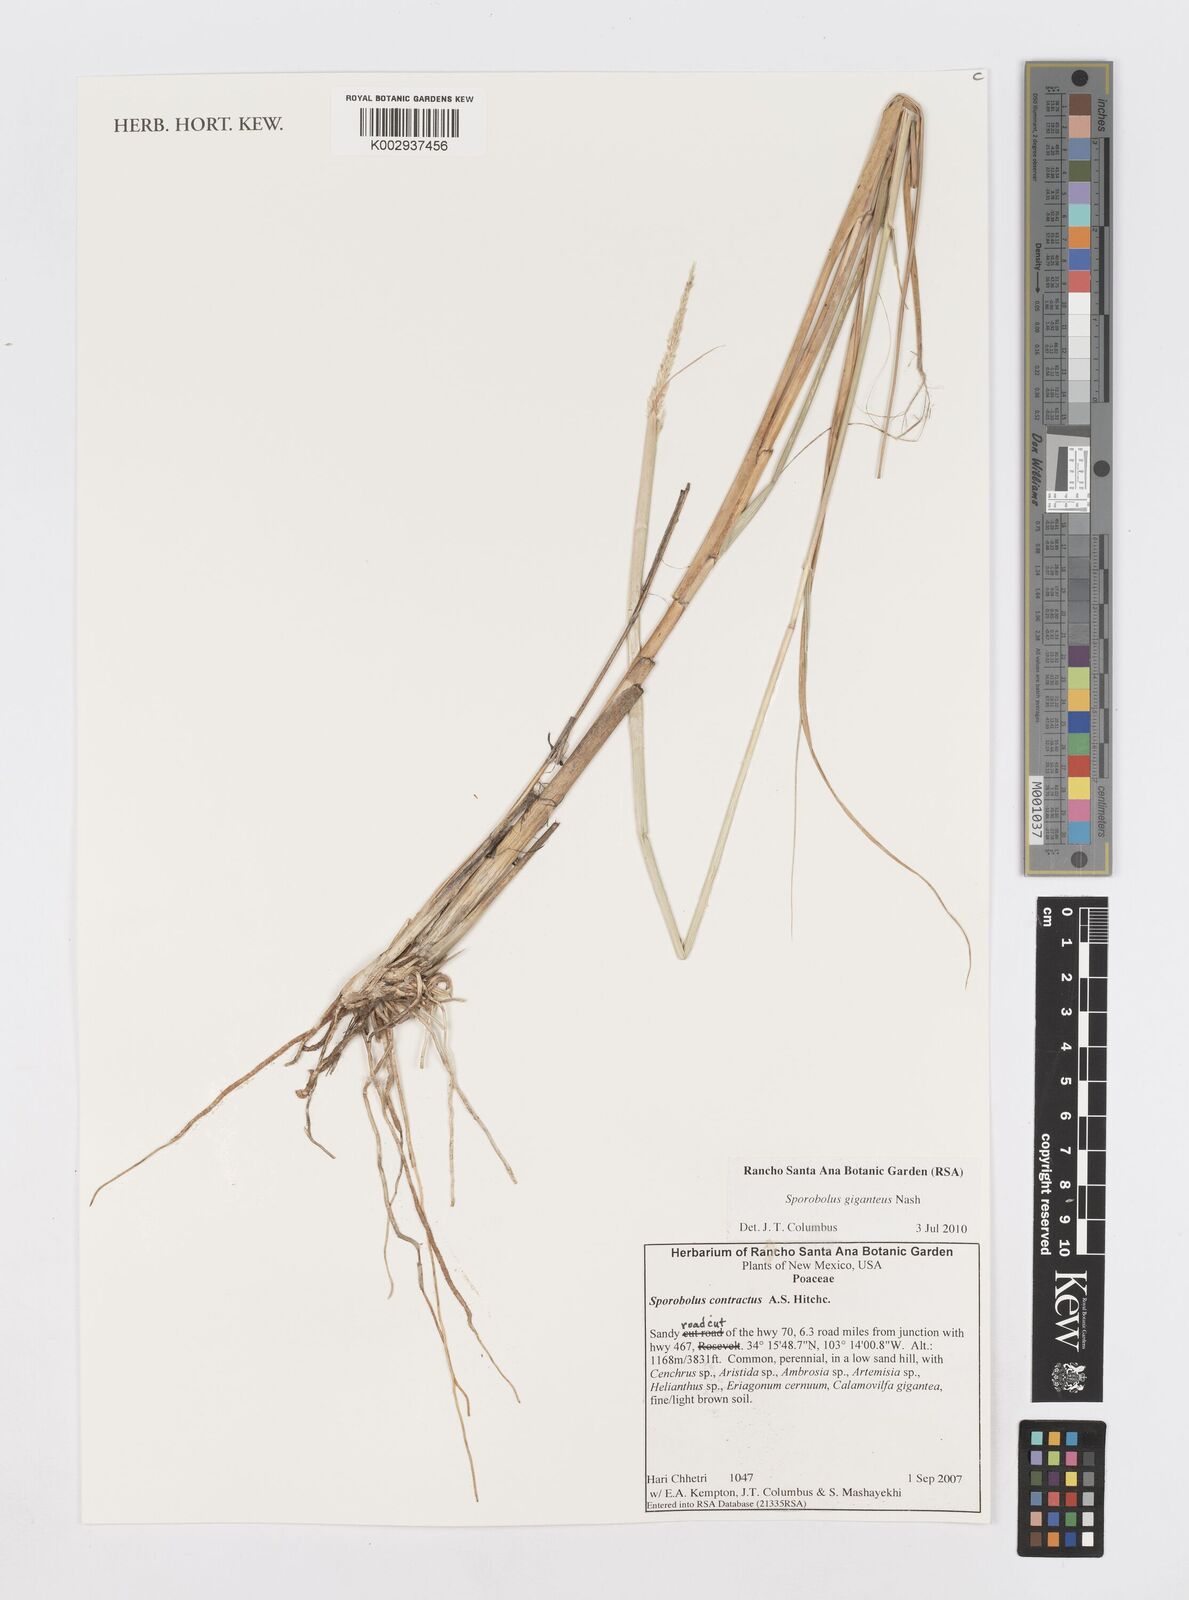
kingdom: Plantae
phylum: Tracheophyta
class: Liliopsida
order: Poales
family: Poaceae
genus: Sporobolus
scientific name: Sporobolus giganteus
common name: Giant dropseed
